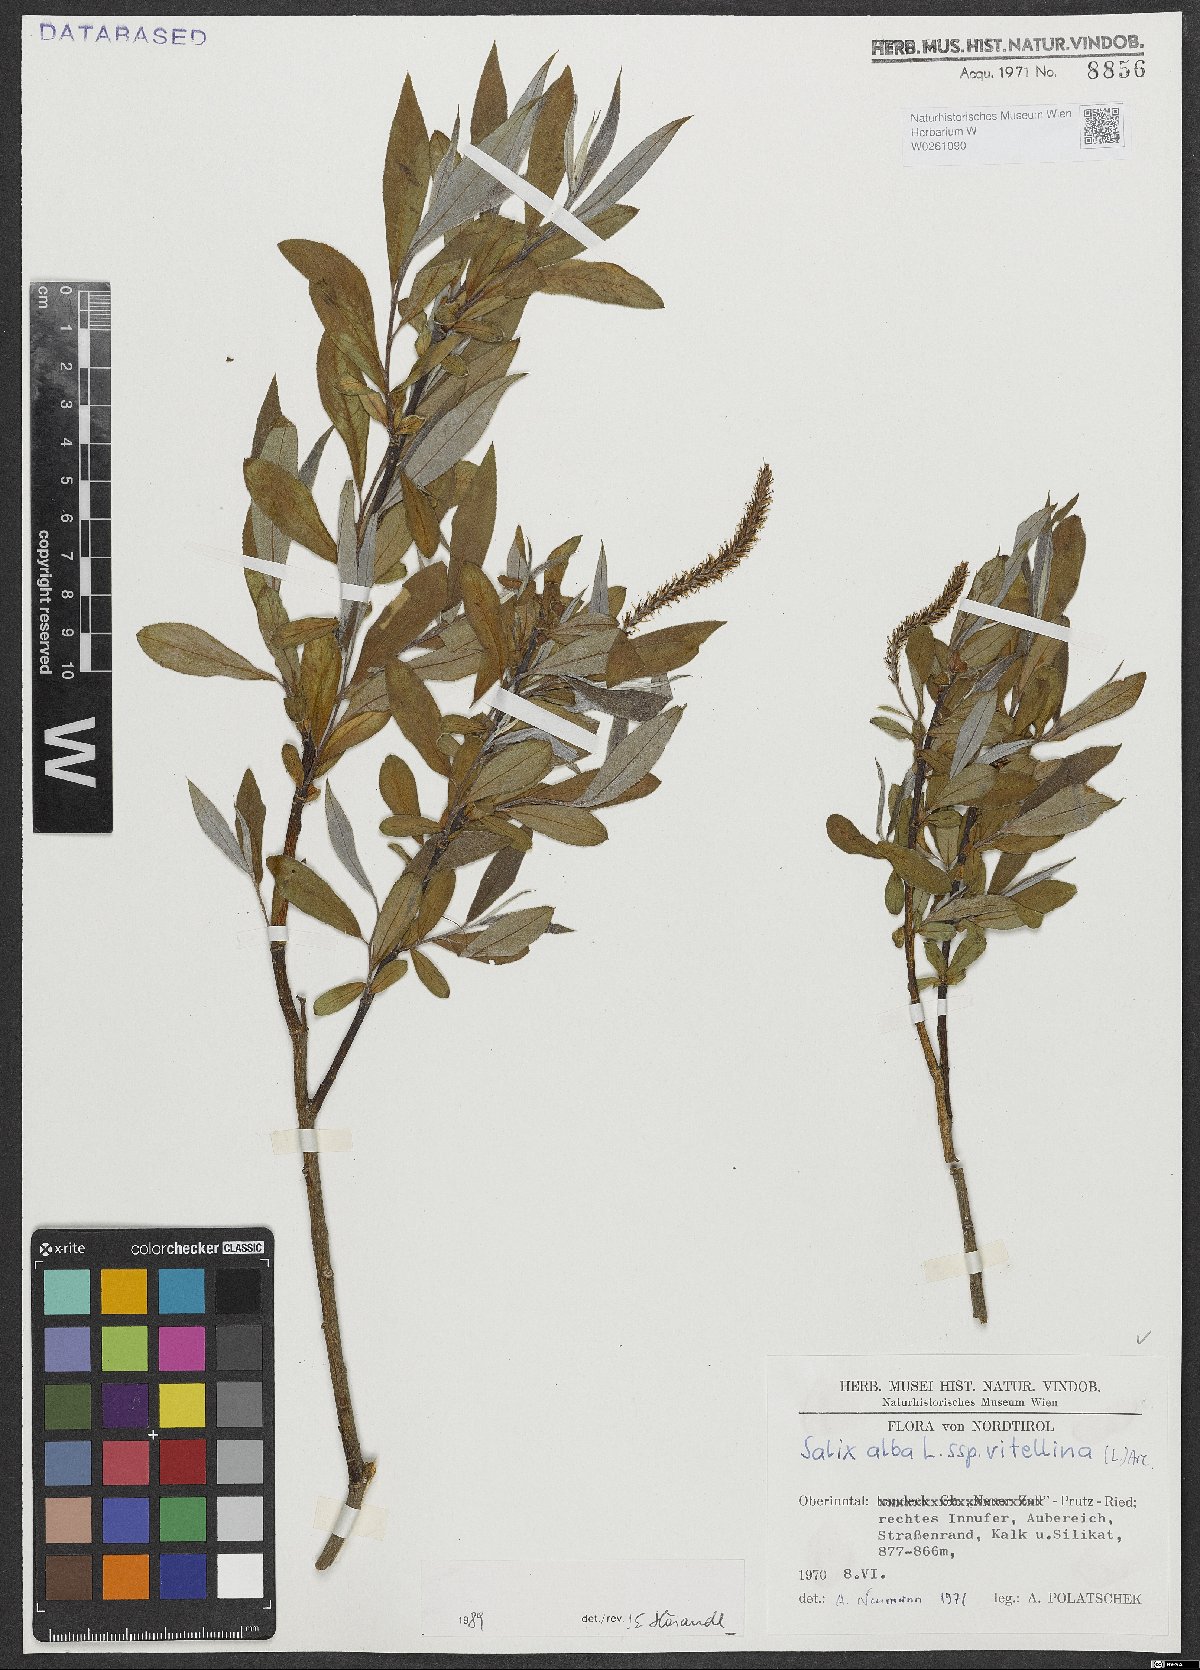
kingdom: Plantae
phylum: Tracheophyta
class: Magnoliopsida
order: Malpighiales
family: Salicaceae
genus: Salix
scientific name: Salix alba
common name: White willow
